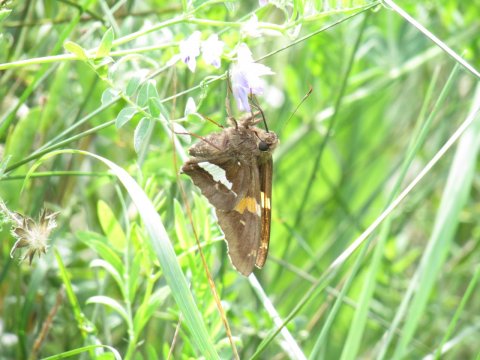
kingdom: Animalia
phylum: Arthropoda
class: Insecta
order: Lepidoptera
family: Hesperiidae
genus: Epargyreus
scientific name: Epargyreus clarus
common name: Silver-spotted Skipper
